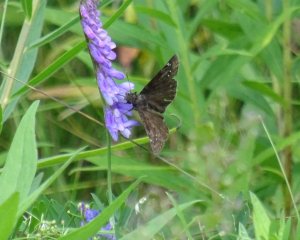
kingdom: Animalia
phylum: Arthropoda
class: Insecta
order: Lepidoptera
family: Hesperiidae
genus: Gesta
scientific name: Gesta
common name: Wild Indigo Duskywing
